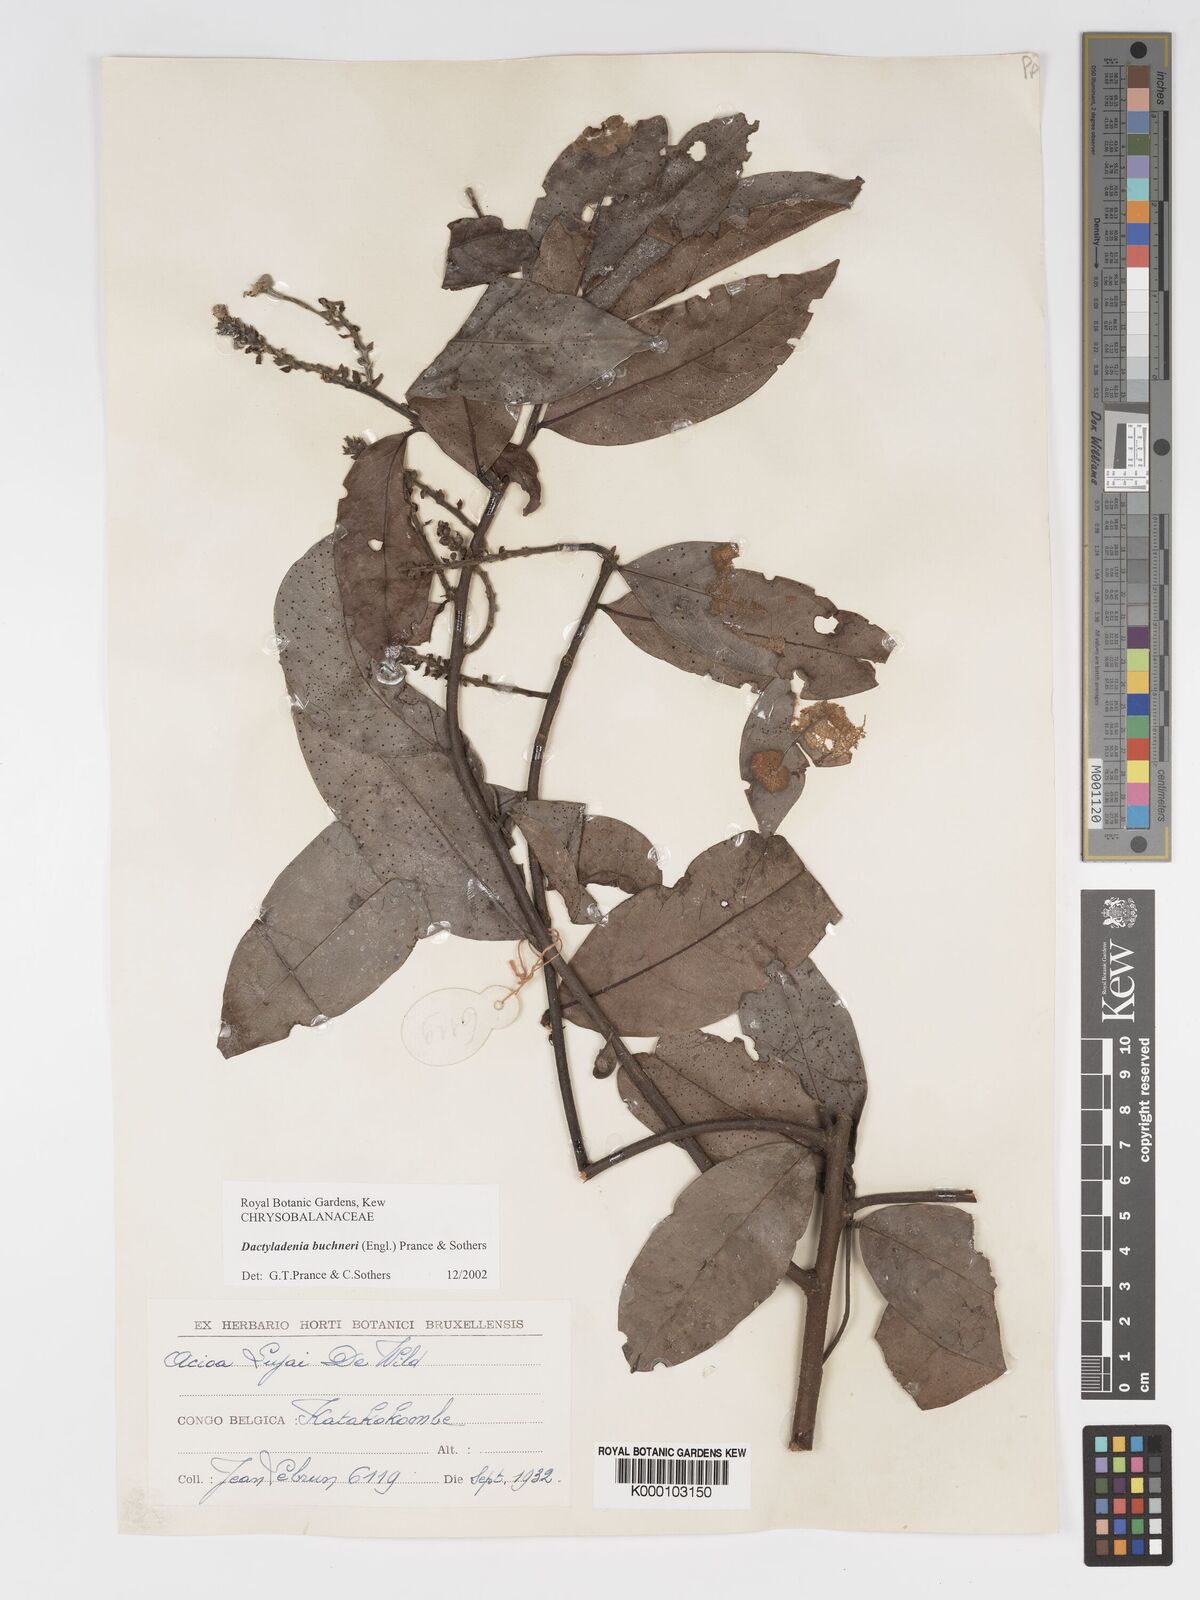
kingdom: Plantae
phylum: Tracheophyta
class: Magnoliopsida
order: Malpighiales
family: Chrysobalanaceae
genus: Dactyladenia
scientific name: Dactyladenia buchneri
